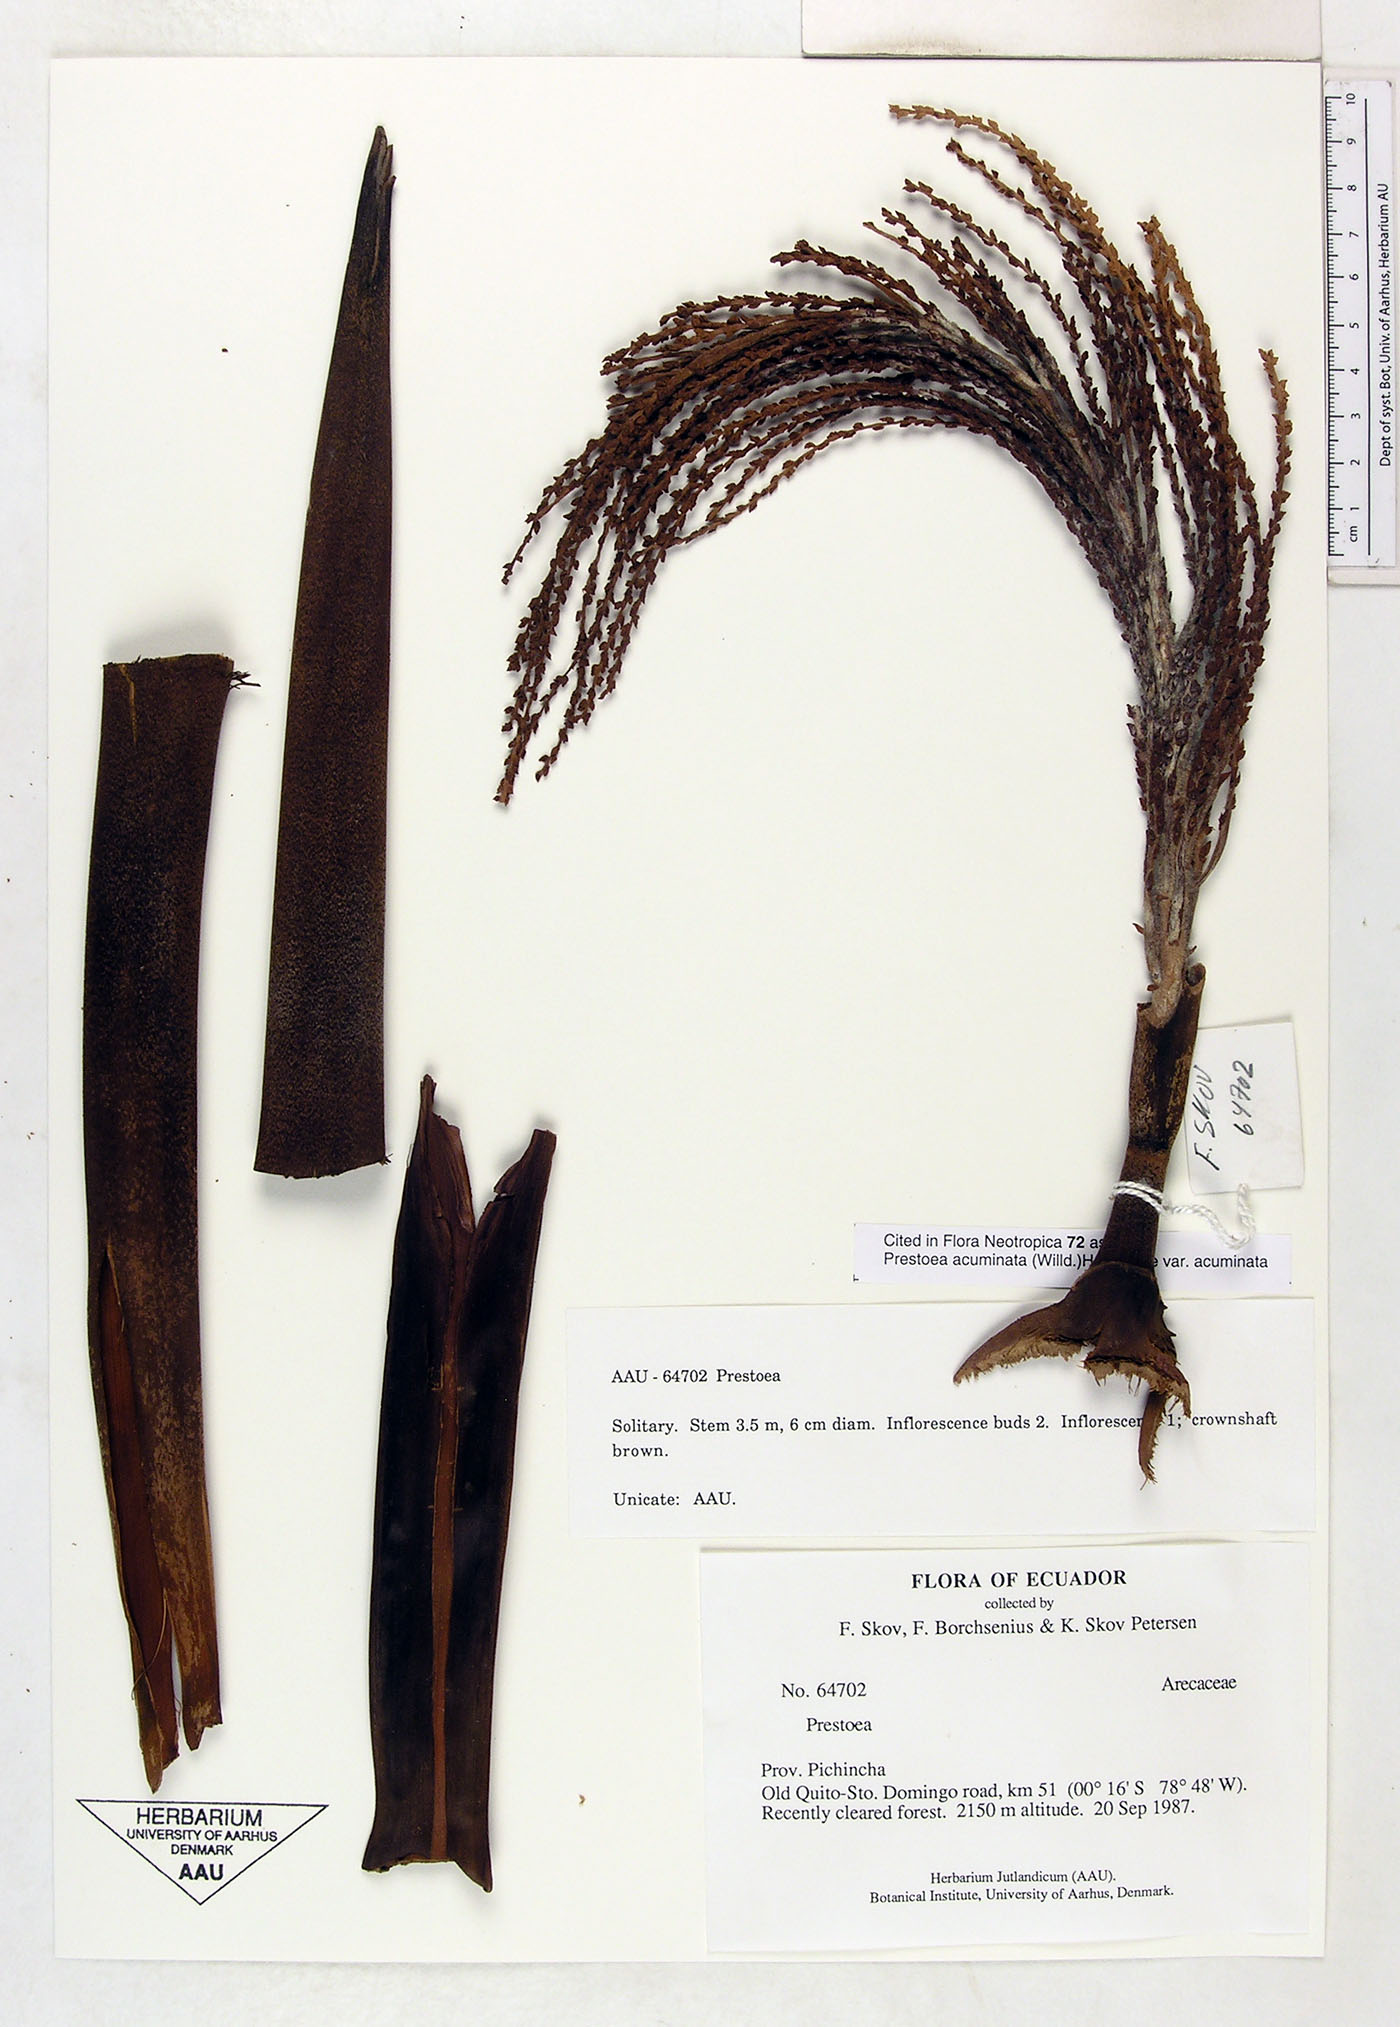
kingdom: Plantae
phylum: Tracheophyta
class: Liliopsida
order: Arecales
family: Arecaceae
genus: Prestoea
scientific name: Prestoea acuminata
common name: Sierran palm
